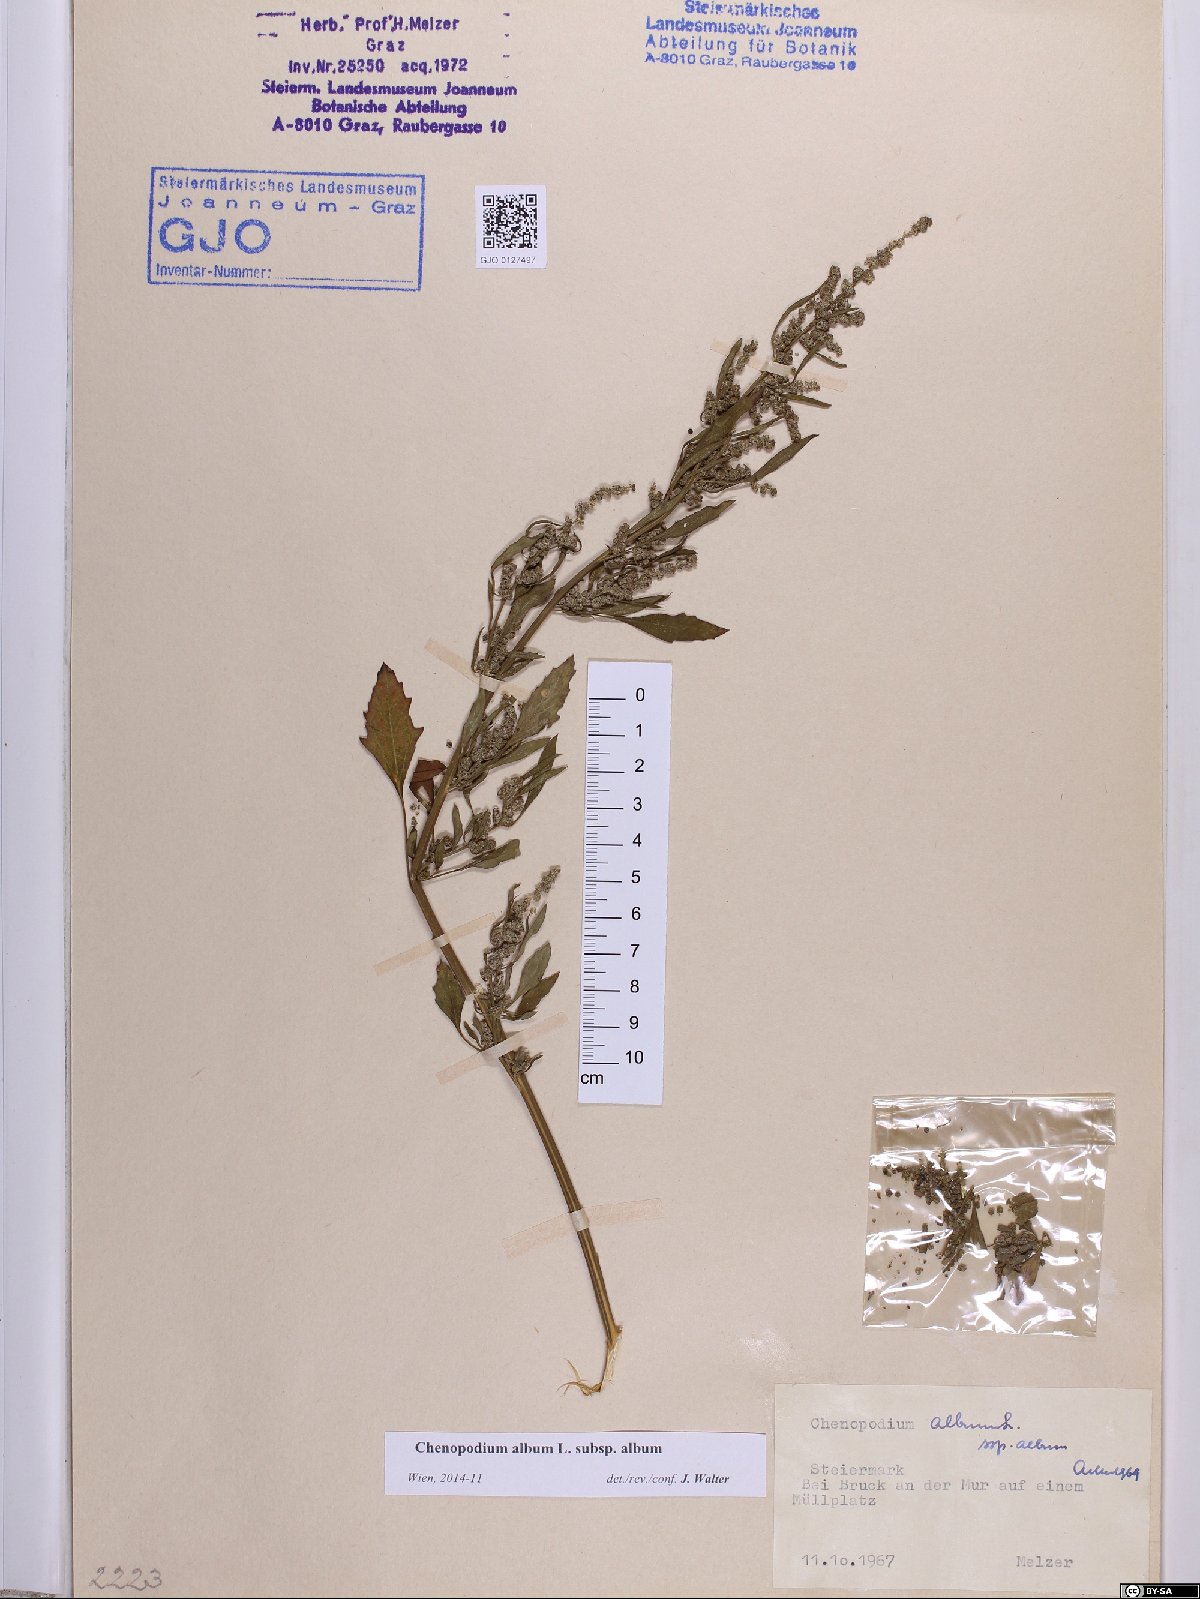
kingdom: Plantae
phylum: Tracheophyta
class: Magnoliopsida
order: Caryophyllales
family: Amaranthaceae
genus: Chenopodium
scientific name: Chenopodium album
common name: Fat-hen
